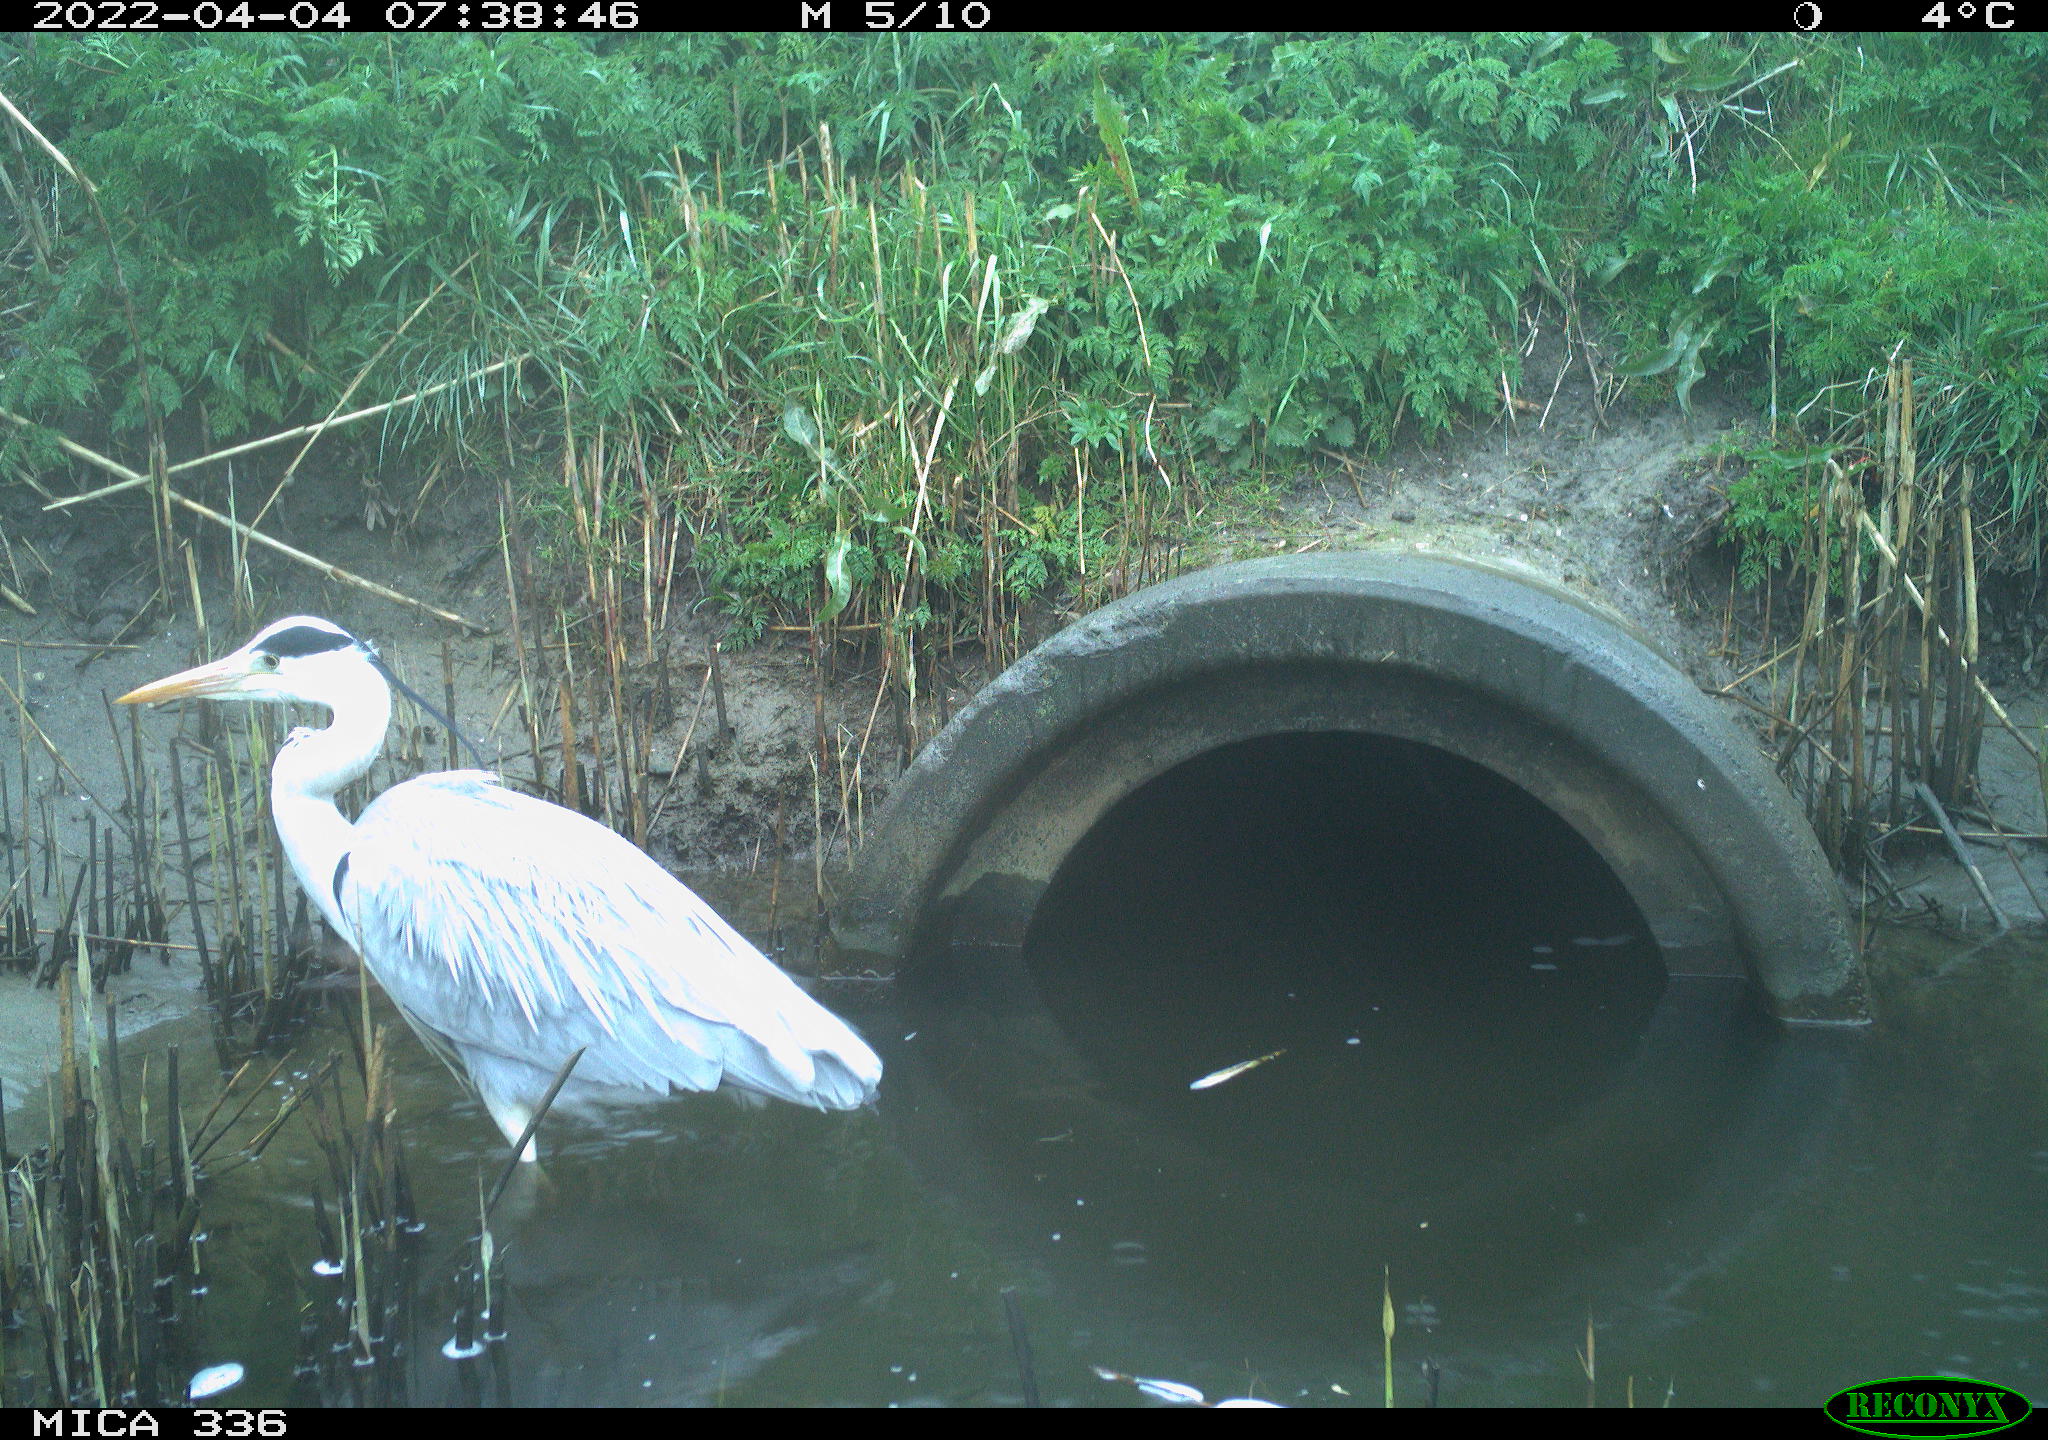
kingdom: Animalia
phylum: Chordata
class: Aves
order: Pelecaniformes
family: Ardeidae
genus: Ardea
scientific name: Ardea
